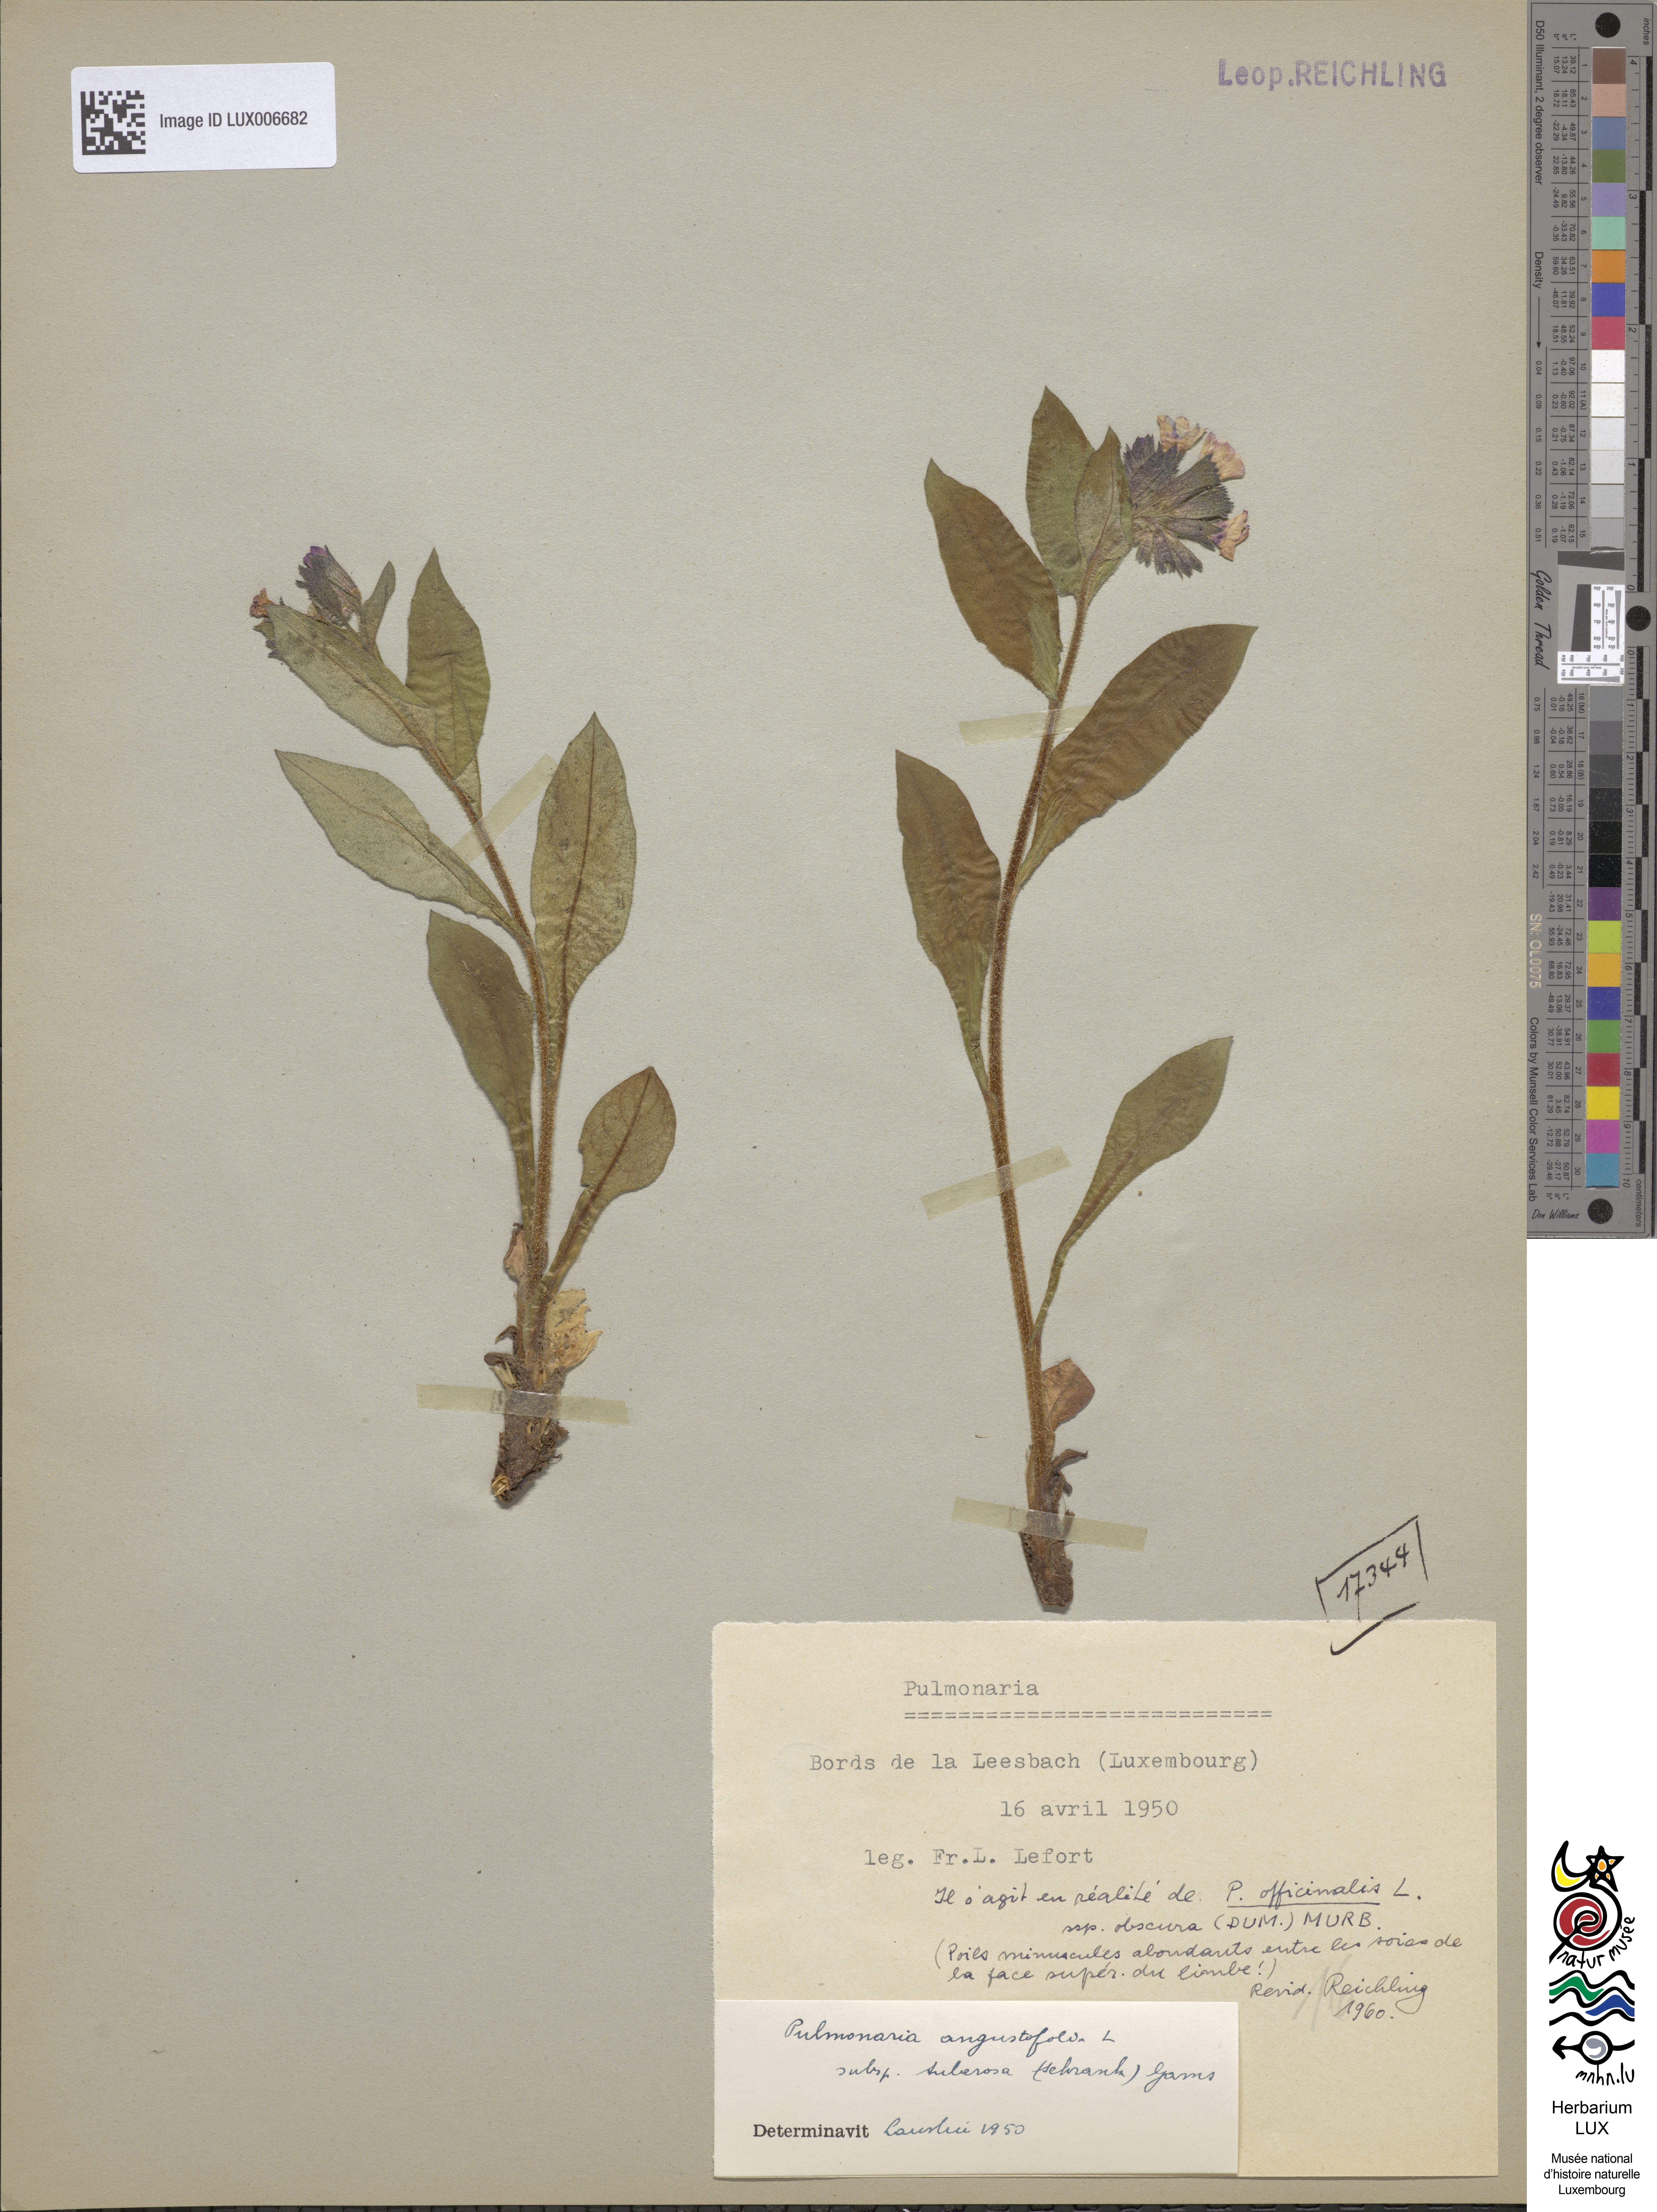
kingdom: Plantae
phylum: Tracheophyta
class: Magnoliopsida
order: Boraginales
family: Boraginaceae
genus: Pulmonaria
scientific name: Pulmonaria obscura
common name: Suffolk lungwort
